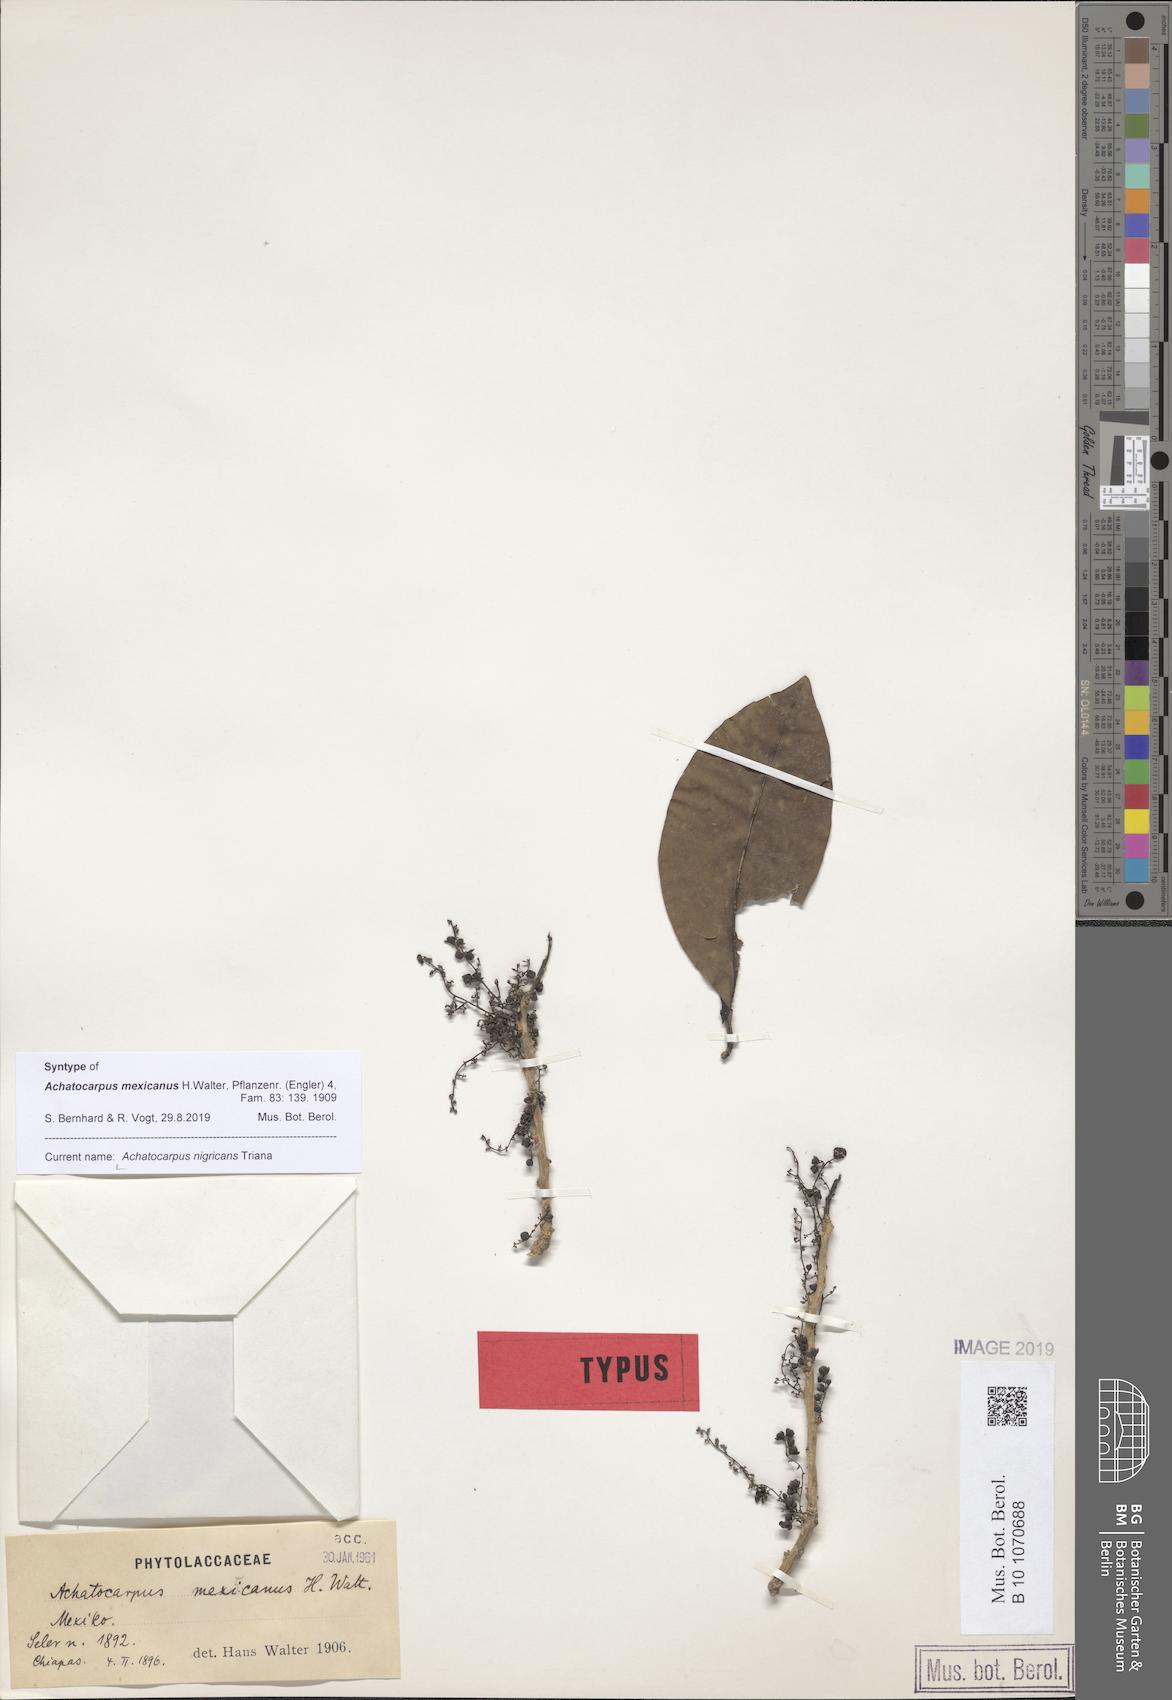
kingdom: Plantae
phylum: Tracheophyta
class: Magnoliopsida
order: Caryophyllales
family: Achatocarpaceae
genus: Achatocarpus
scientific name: Achatocarpus nigricans
